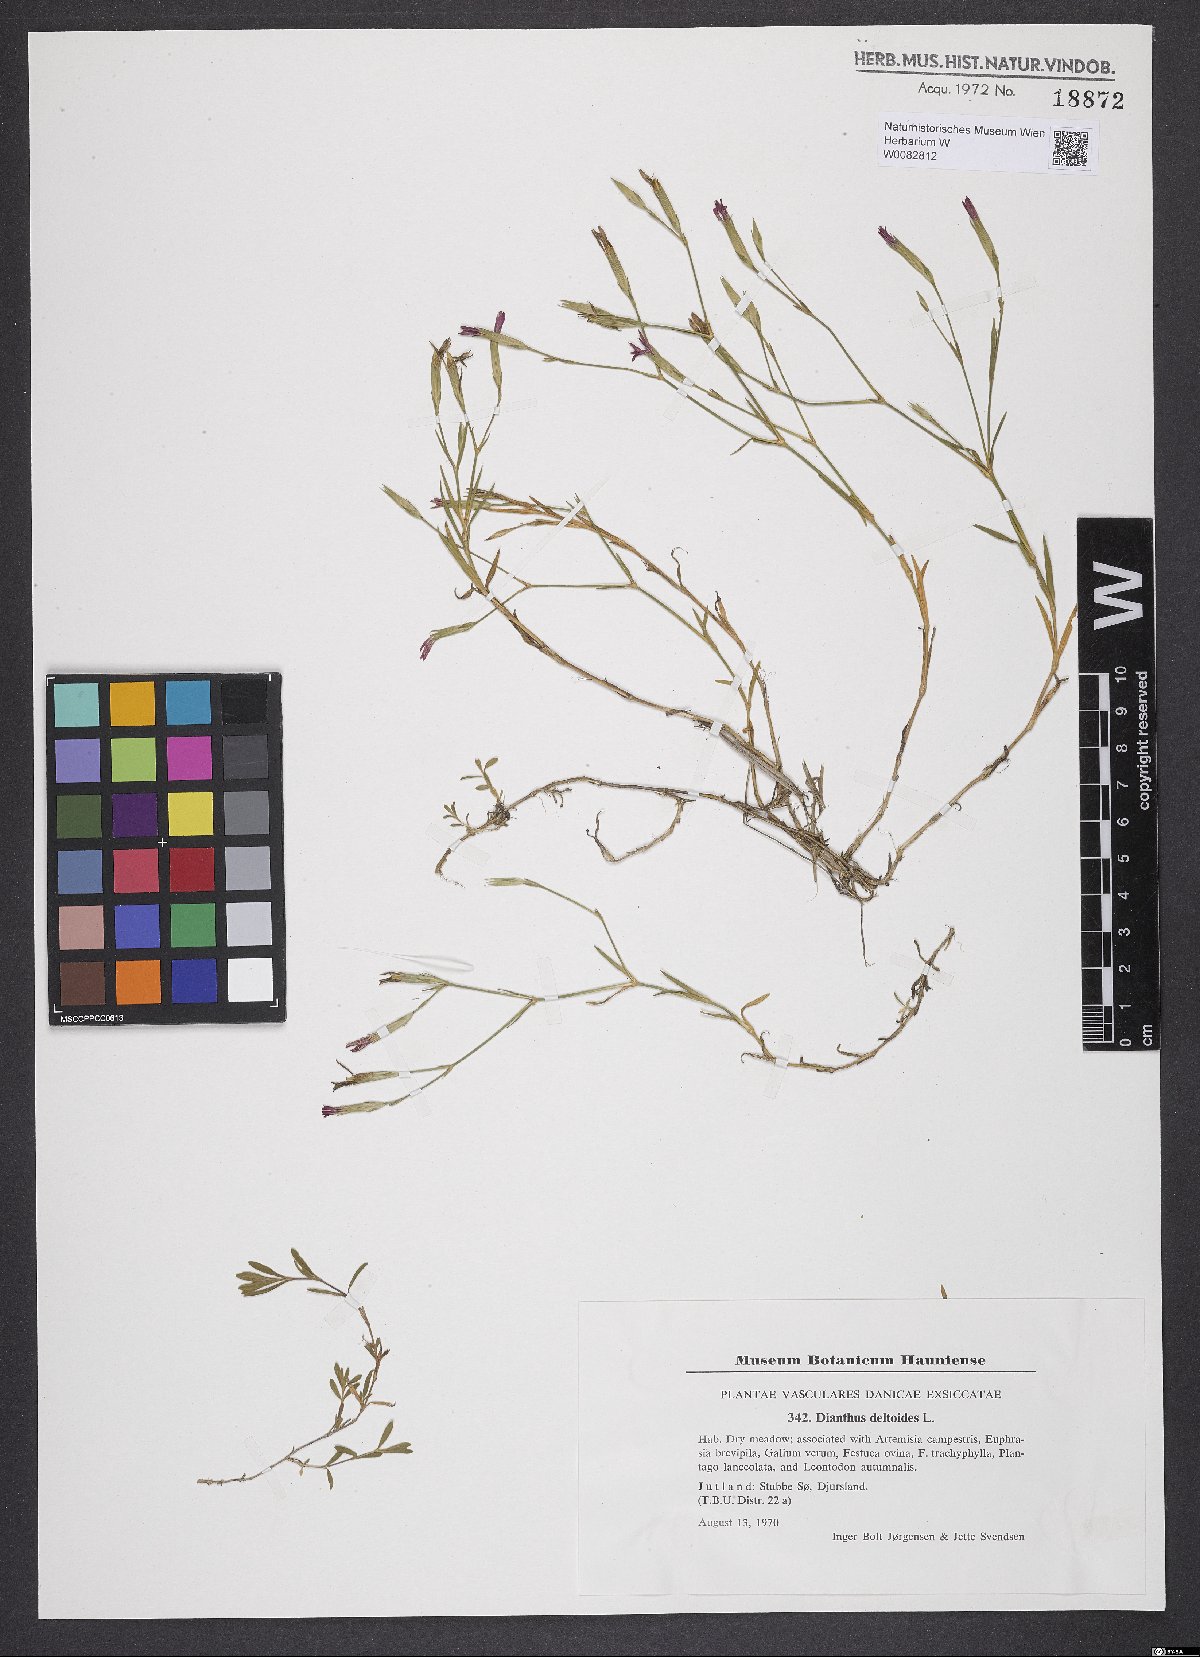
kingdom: Plantae
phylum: Tracheophyta
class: Magnoliopsida
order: Caryophyllales
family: Caryophyllaceae
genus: Dianthus
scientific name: Dianthus deltoides
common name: Maiden pink
